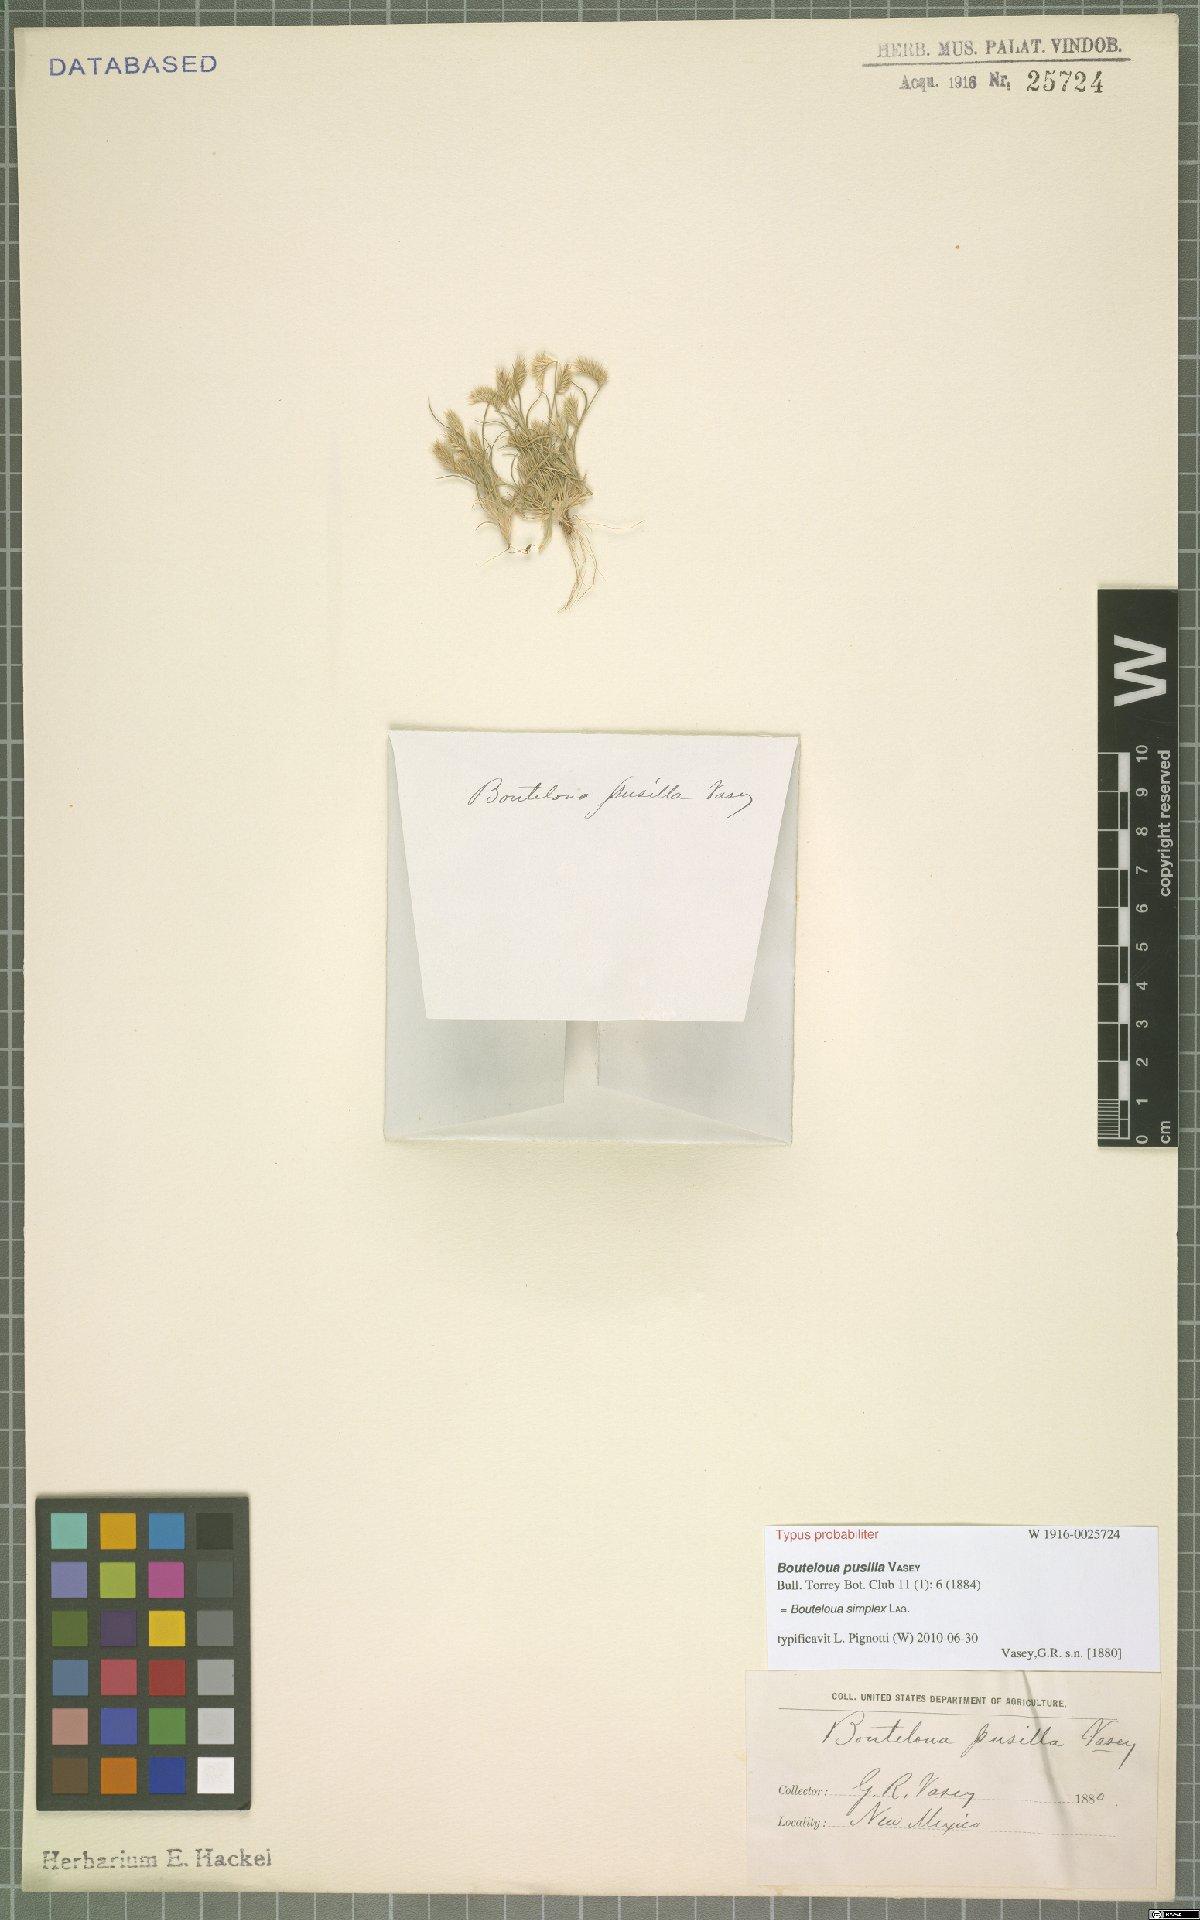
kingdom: Plantae
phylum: Tracheophyta
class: Liliopsida
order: Poales
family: Poaceae
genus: Bouteloua
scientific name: Bouteloua simplex
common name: Mat grama
